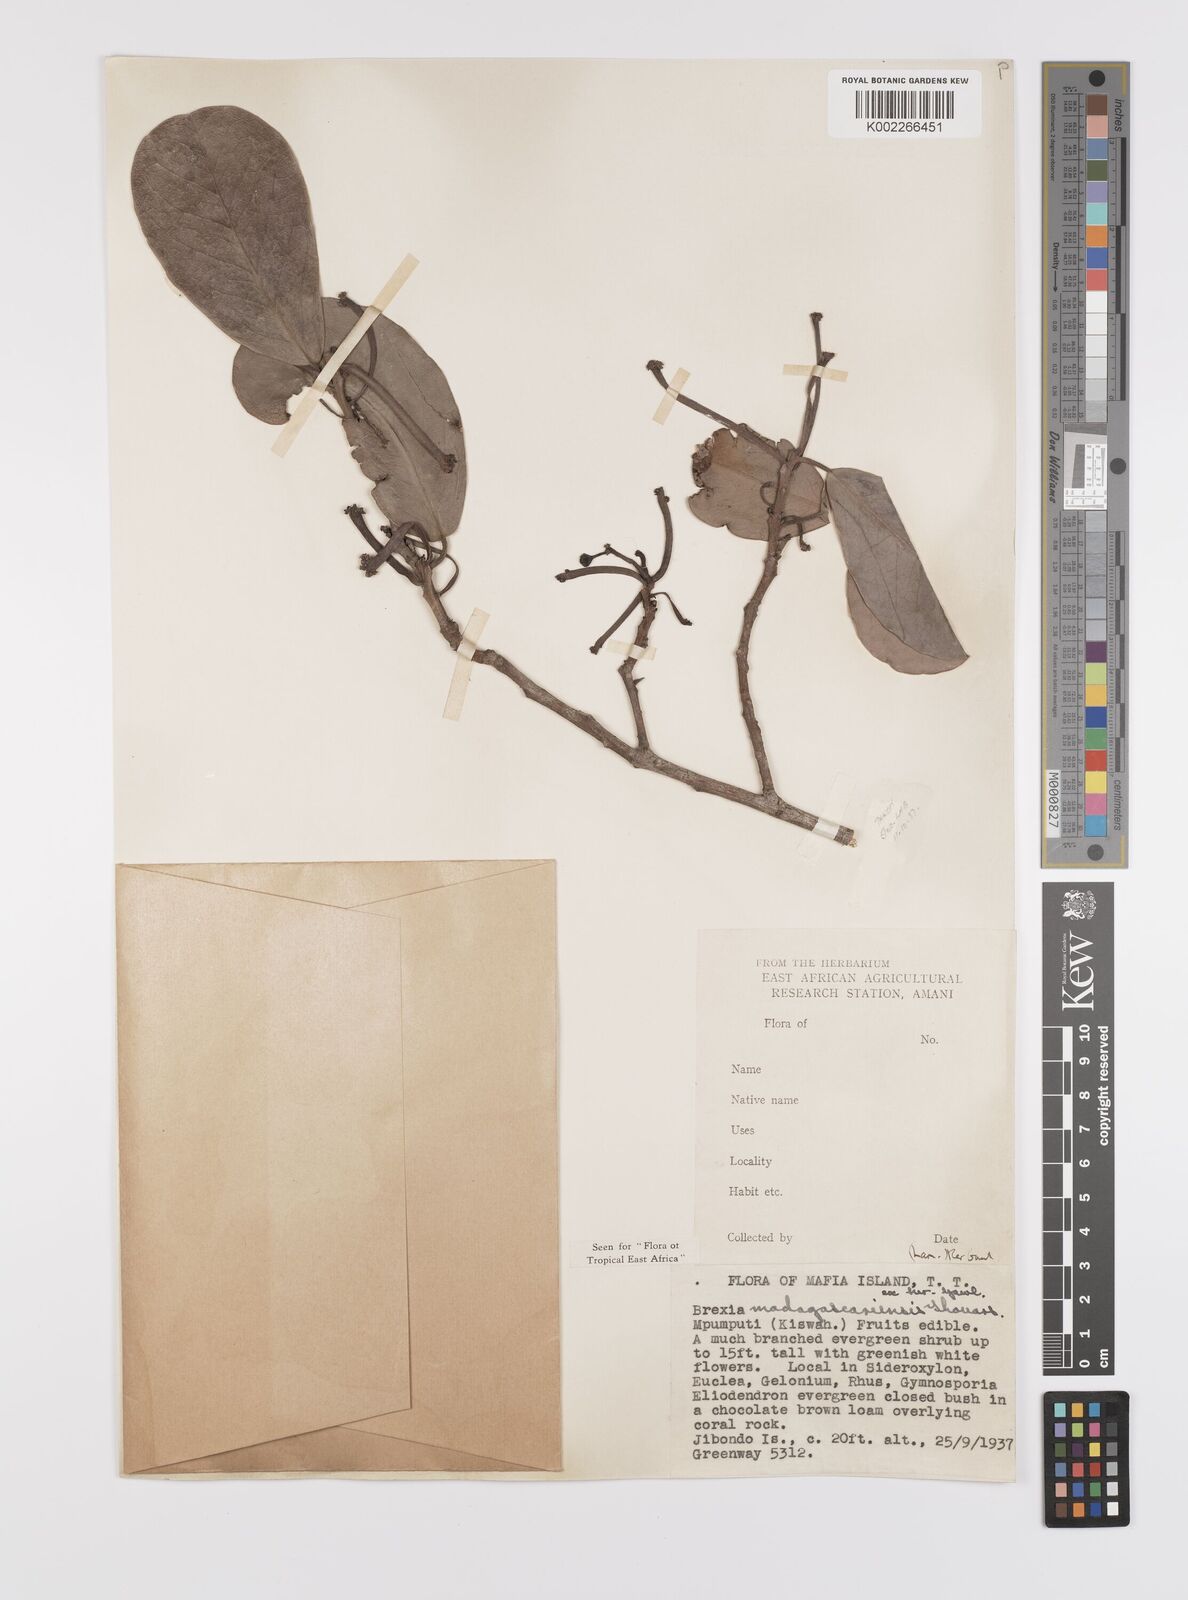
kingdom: Plantae
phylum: Tracheophyta
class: Magnoliopsida
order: Celastrales
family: Celastraceae
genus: Brexia
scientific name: Brexia madagascariensis
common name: Brexia
